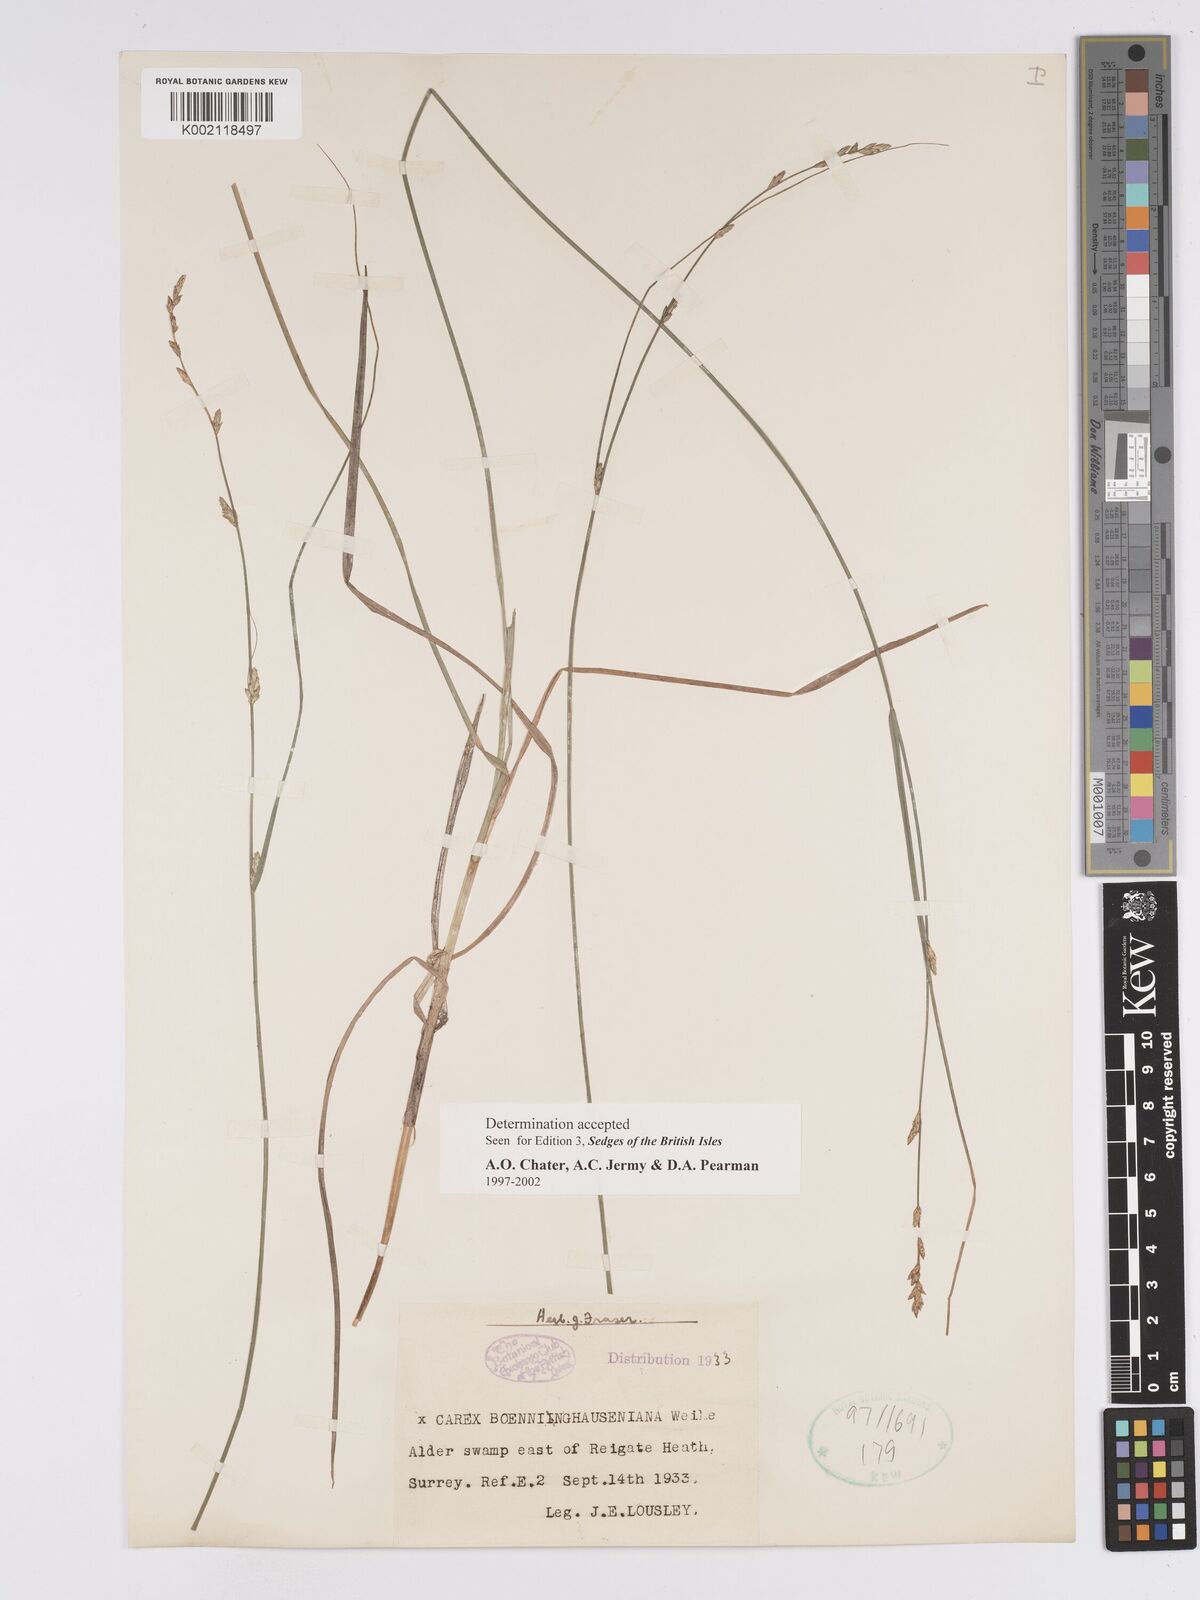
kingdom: Plantae
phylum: Tracheophyta
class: Liliopsida
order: Poales
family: Cyperaceae
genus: Carex
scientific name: Carex boenninghausiana
